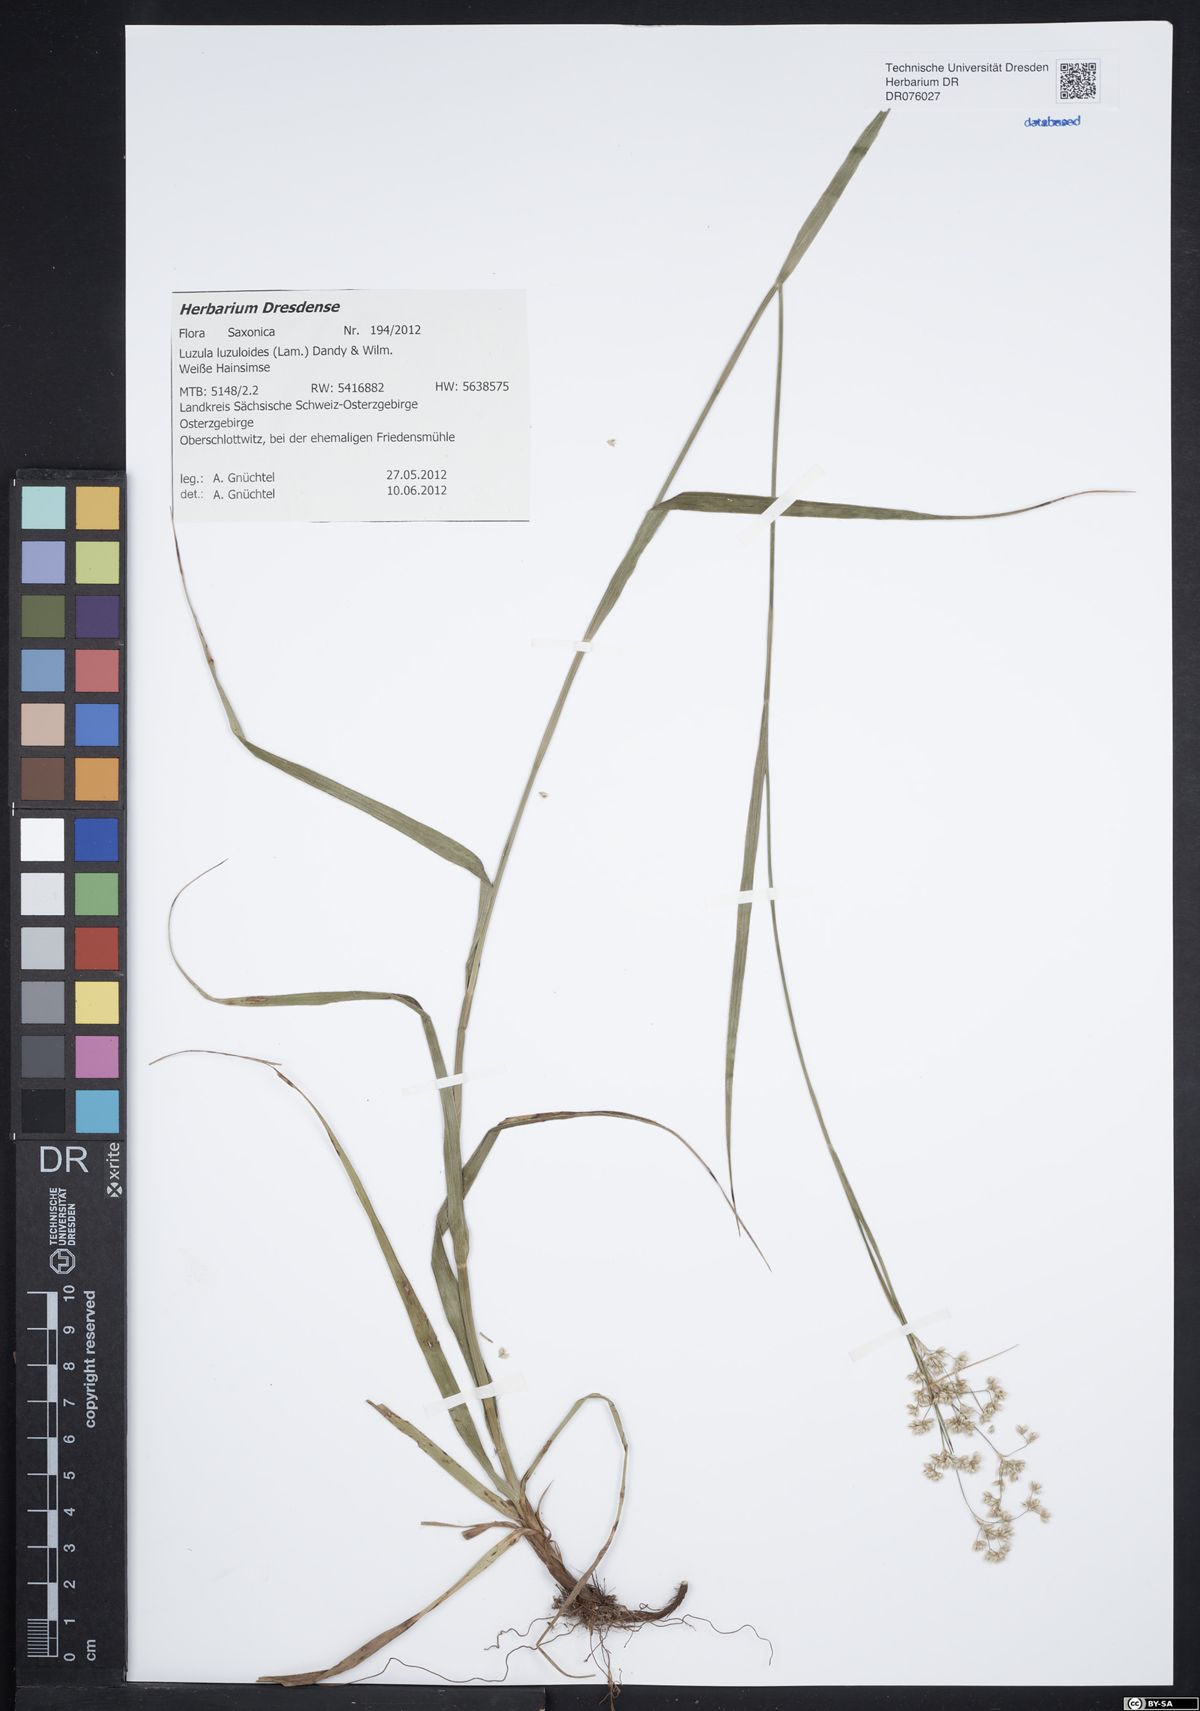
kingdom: Plantae
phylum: Tracheophyta
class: Liliopsida
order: Poales
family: Juncaceae
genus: Luzula
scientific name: Luzula luzuloides
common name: White wood-rush
